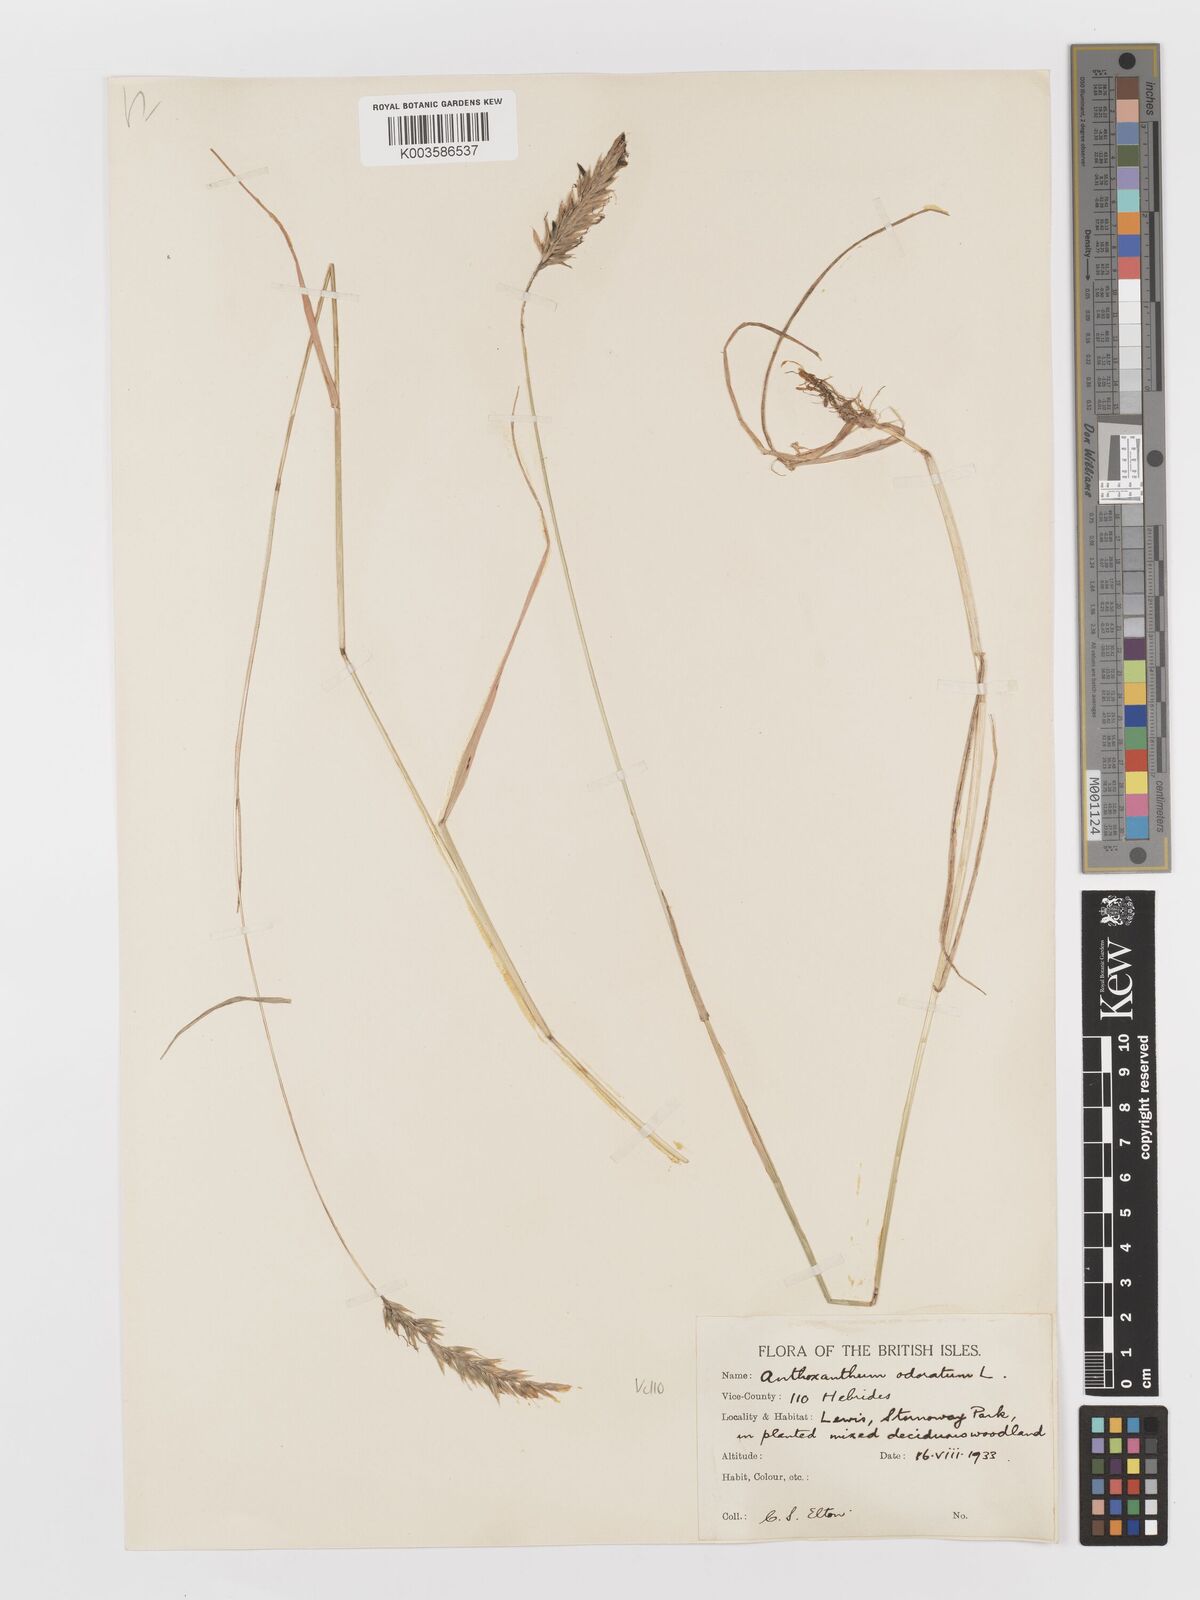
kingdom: Plantae
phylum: Tracheophyta
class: Liliopsida
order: Poales
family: Poaceae
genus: Anthoxanthum
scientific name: Anthoxanthum odoratum
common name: Sweet vernalgrass
